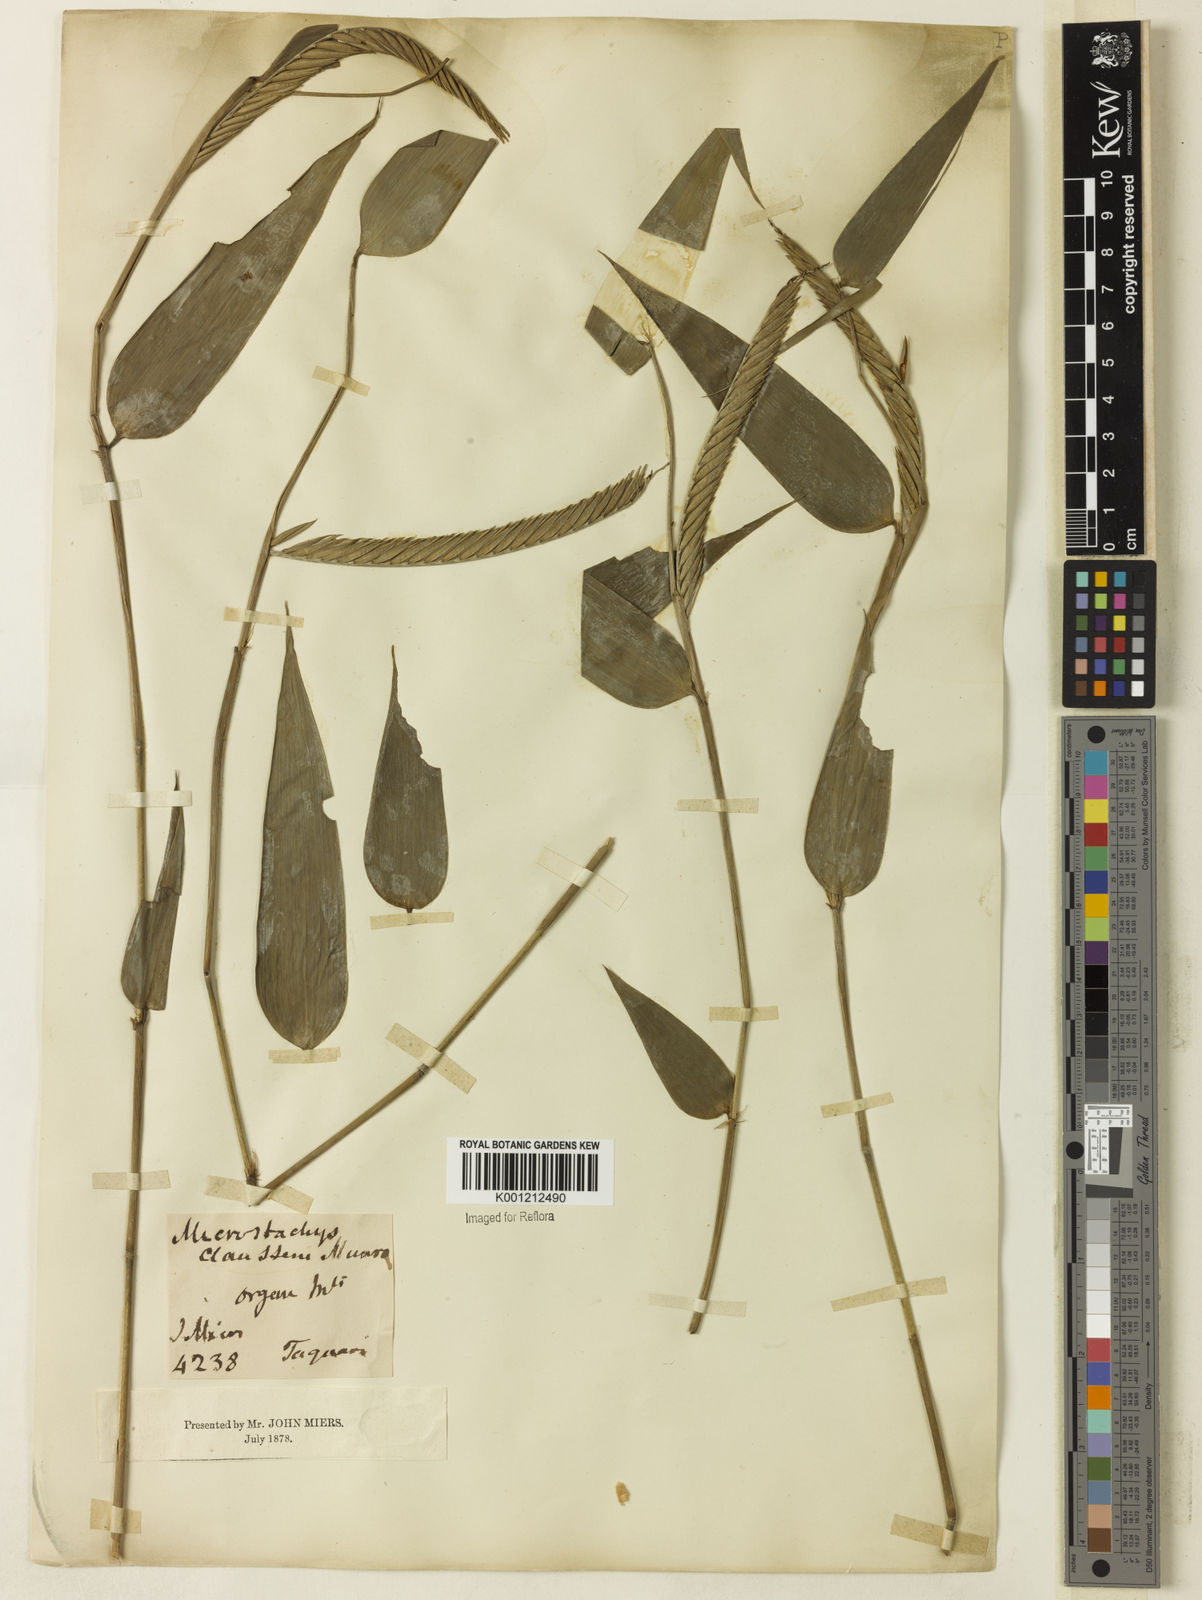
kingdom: Plantae
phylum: Tracheophyta
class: Liliopsida
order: Poales
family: Poaceae
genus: Merostachys
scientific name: Merostachys claussenii
